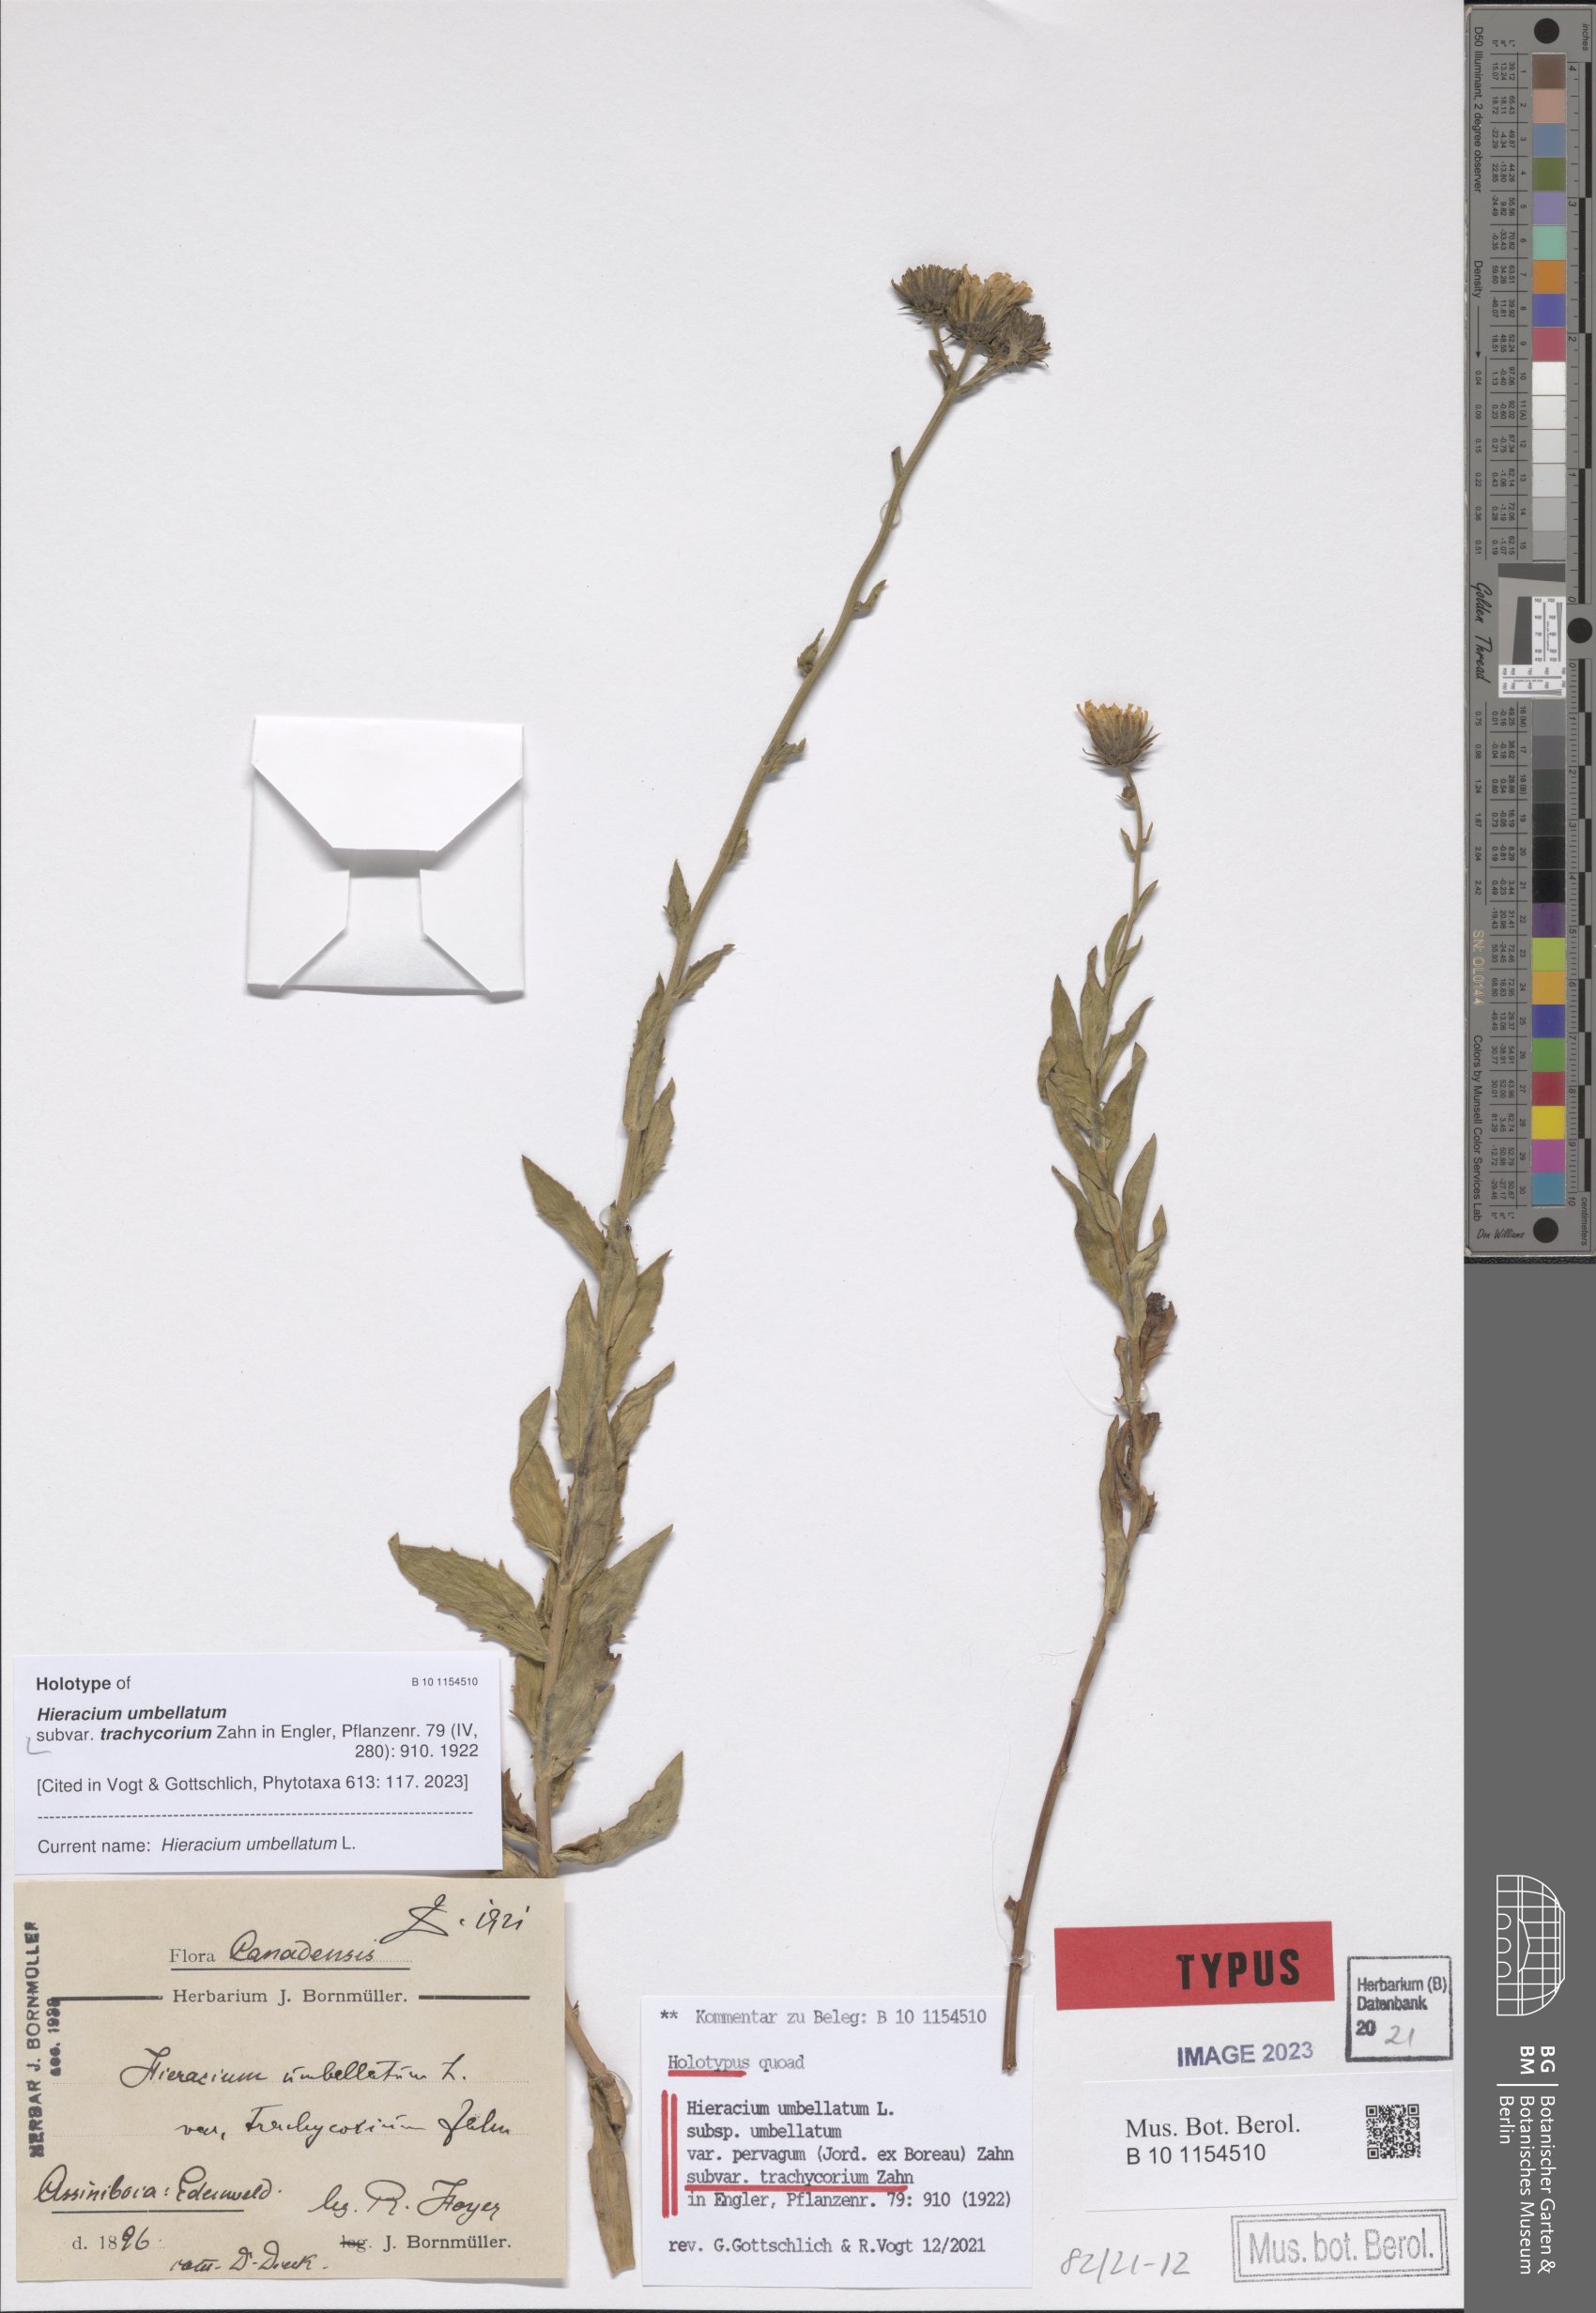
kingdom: Plantae
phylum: Tracheophyta
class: Magnoliopsida
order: Asterales
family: Asteraceae
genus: Hieracium
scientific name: Hieracium umbellatum
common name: Northern hawkweed
